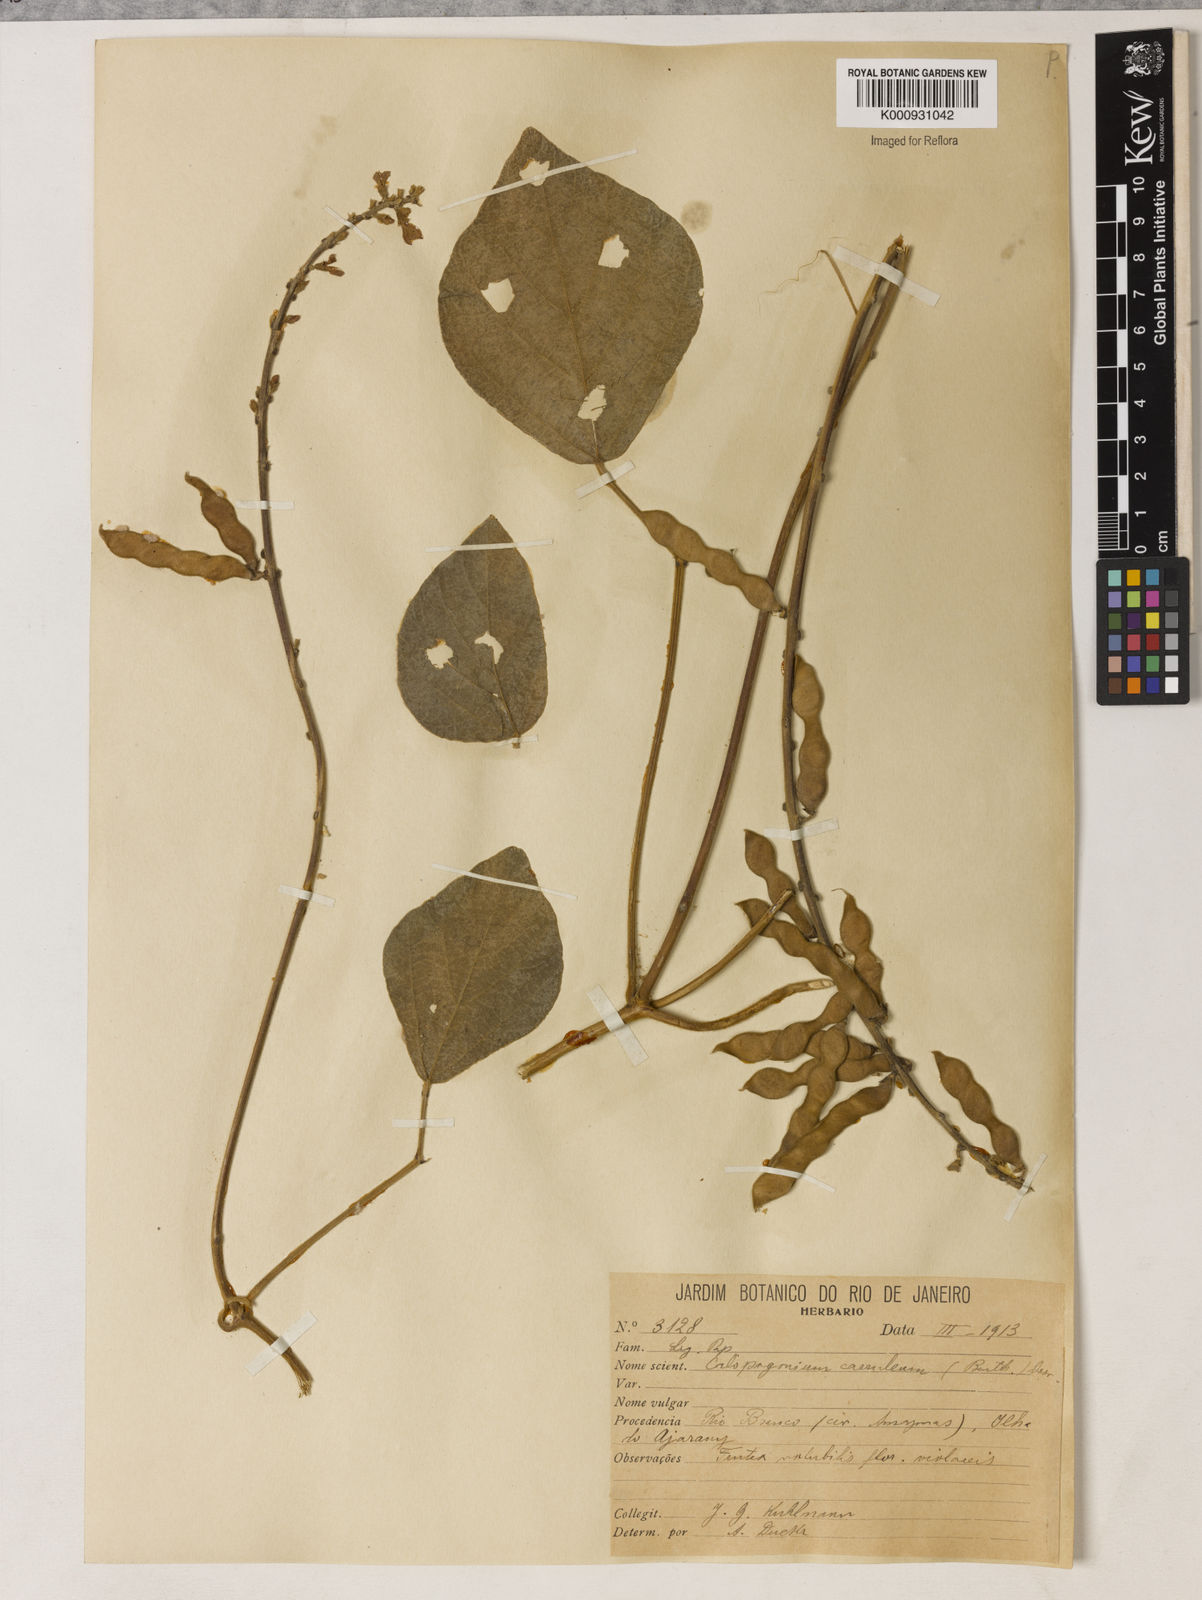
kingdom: Plantae
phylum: Tracheophyta
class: Magnoliopsida
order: Fabales
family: Fabaceae
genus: Calopogonium
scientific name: Calopogonium caeruleum
